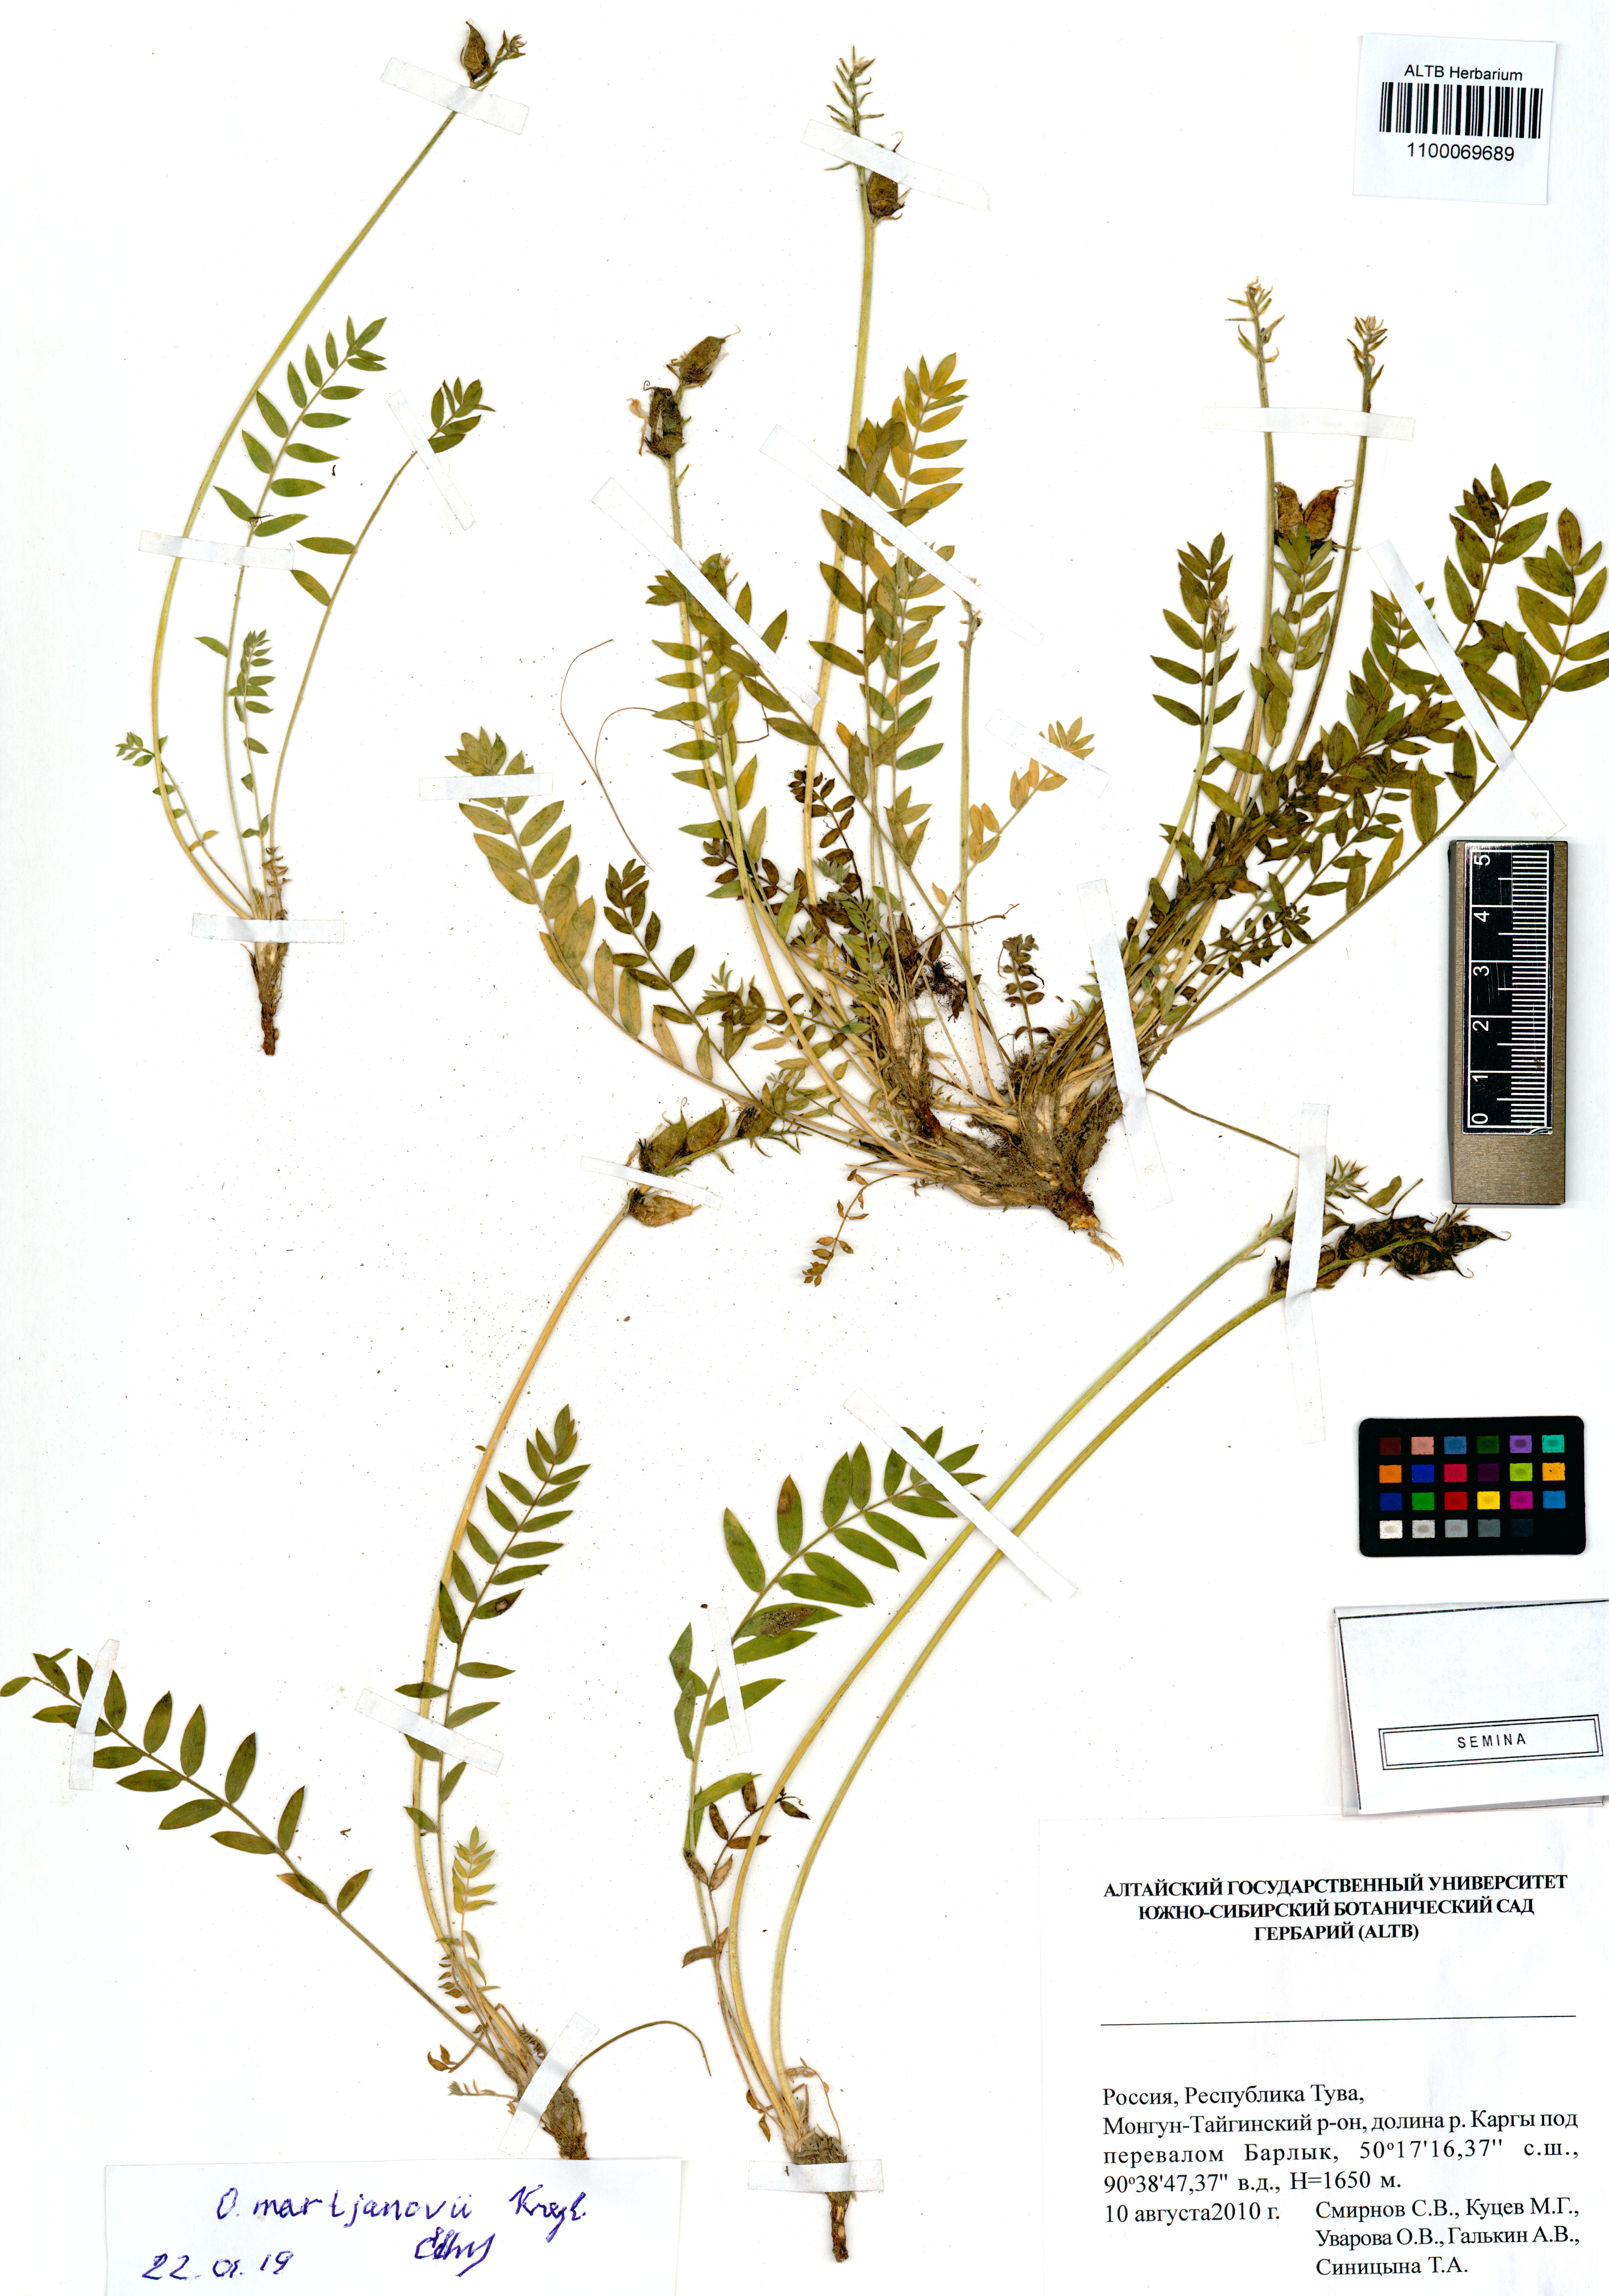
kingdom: Plantae
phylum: Tracheophyta
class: Magnoliopsida
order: Fabales
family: Fabaceae
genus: Oxytropis
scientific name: Oxytropis martjanovii
